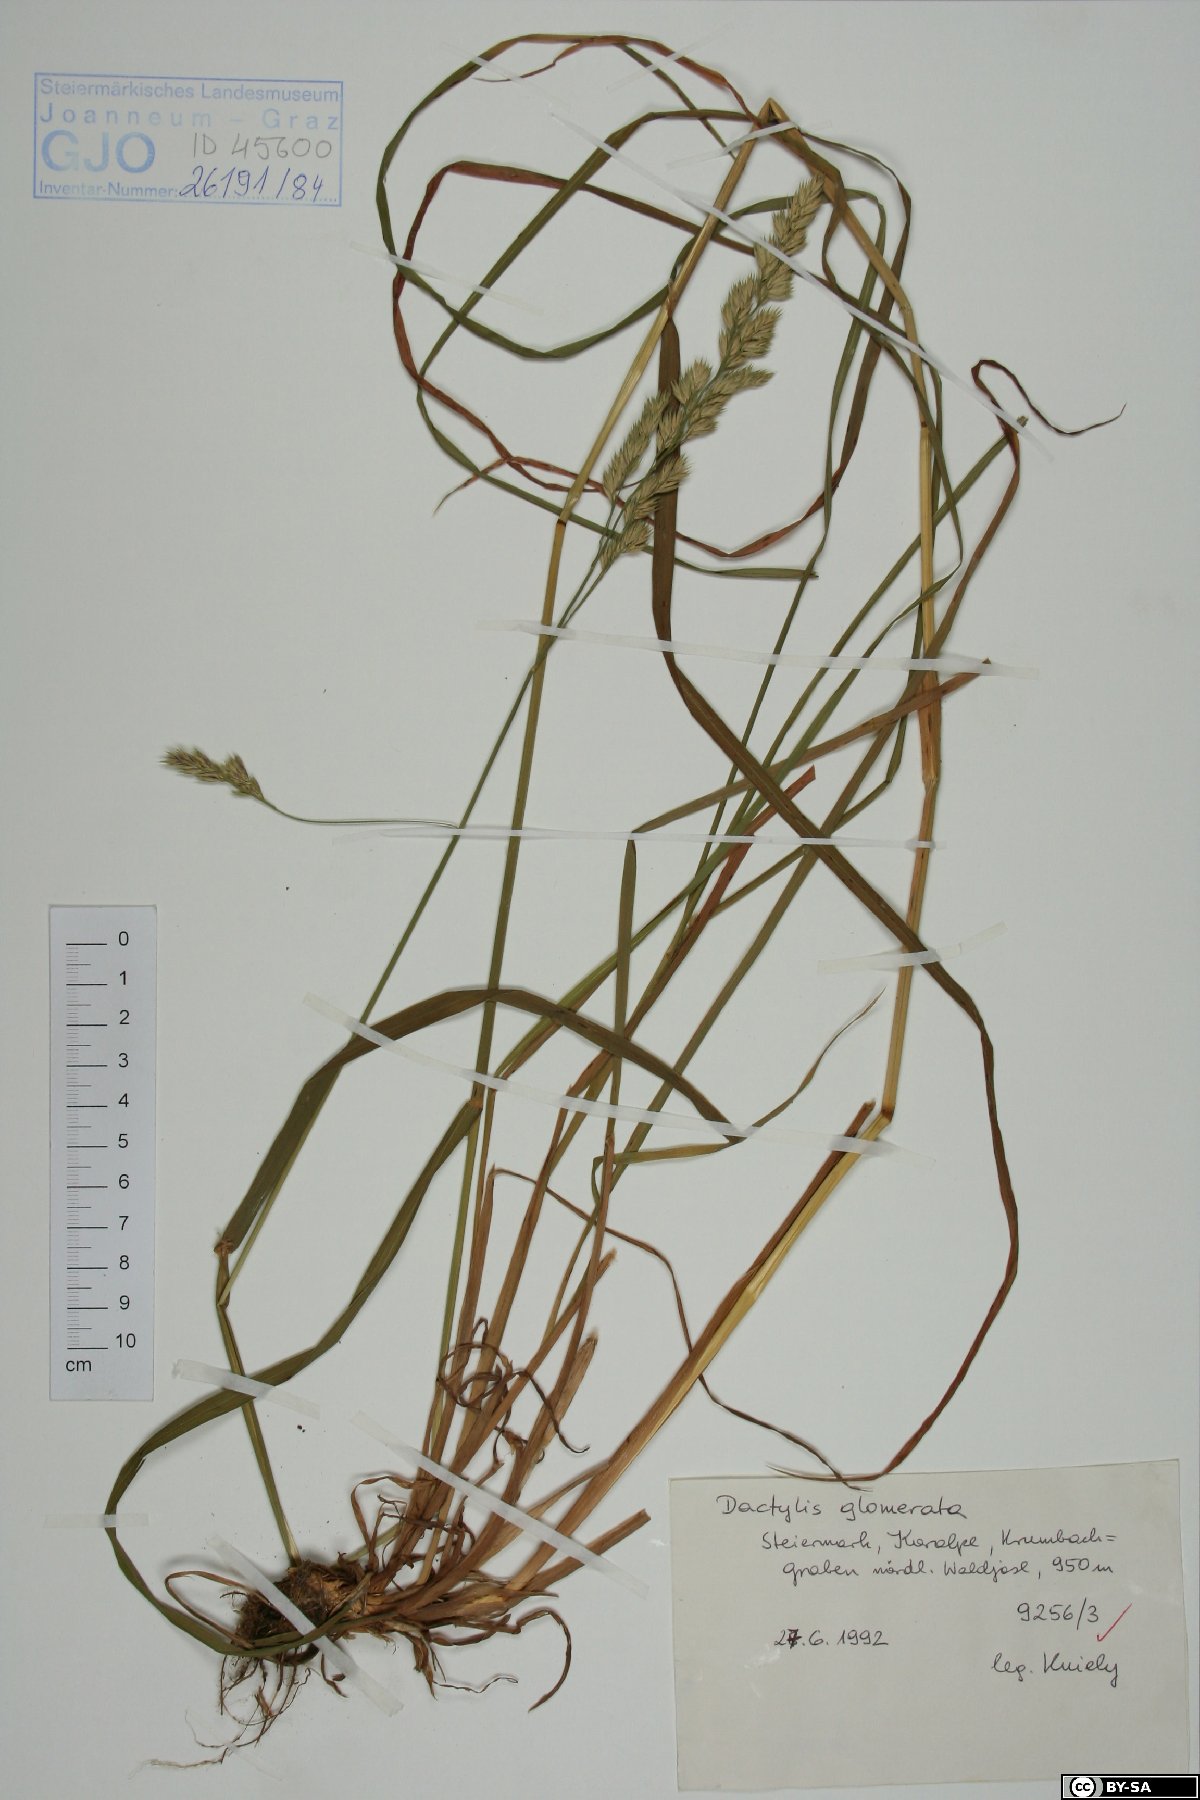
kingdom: Plantae
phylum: Tracheophyta
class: Liliopsida
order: Poales
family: Poaceae
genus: Dactylis
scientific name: Dactylis glomerata
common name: Orchardgrass
